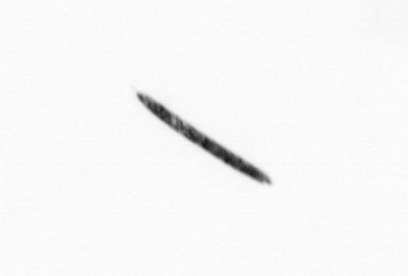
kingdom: Bacteria
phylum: Cyanobacteria
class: Cyanobacteriia
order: Cyanobacteriales
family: Microcoleaceae
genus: Trichodesmium
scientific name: Trichodesmium
